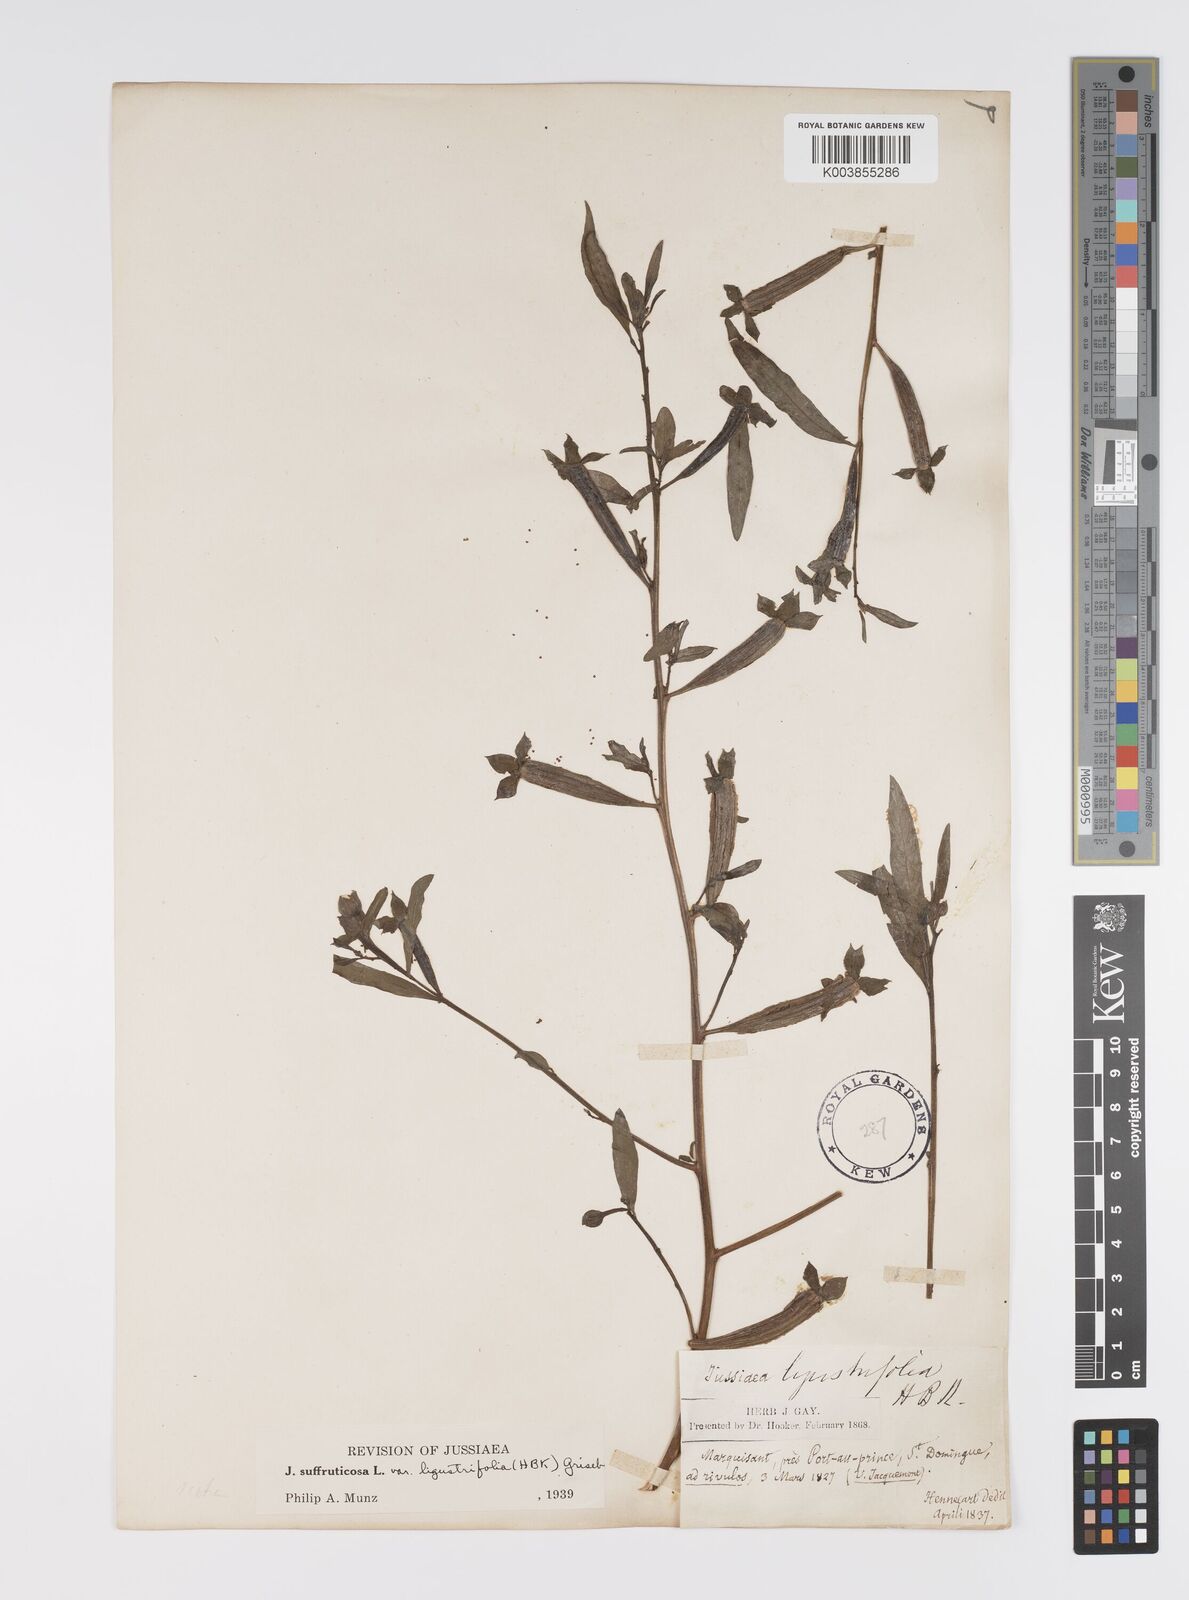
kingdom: Plantae
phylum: Tracheophyta
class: Magnoliopsida
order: Myrtales
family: Onagraceae
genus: Ludwigia
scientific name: Ludwigia octovalvis
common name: Water-primrose
